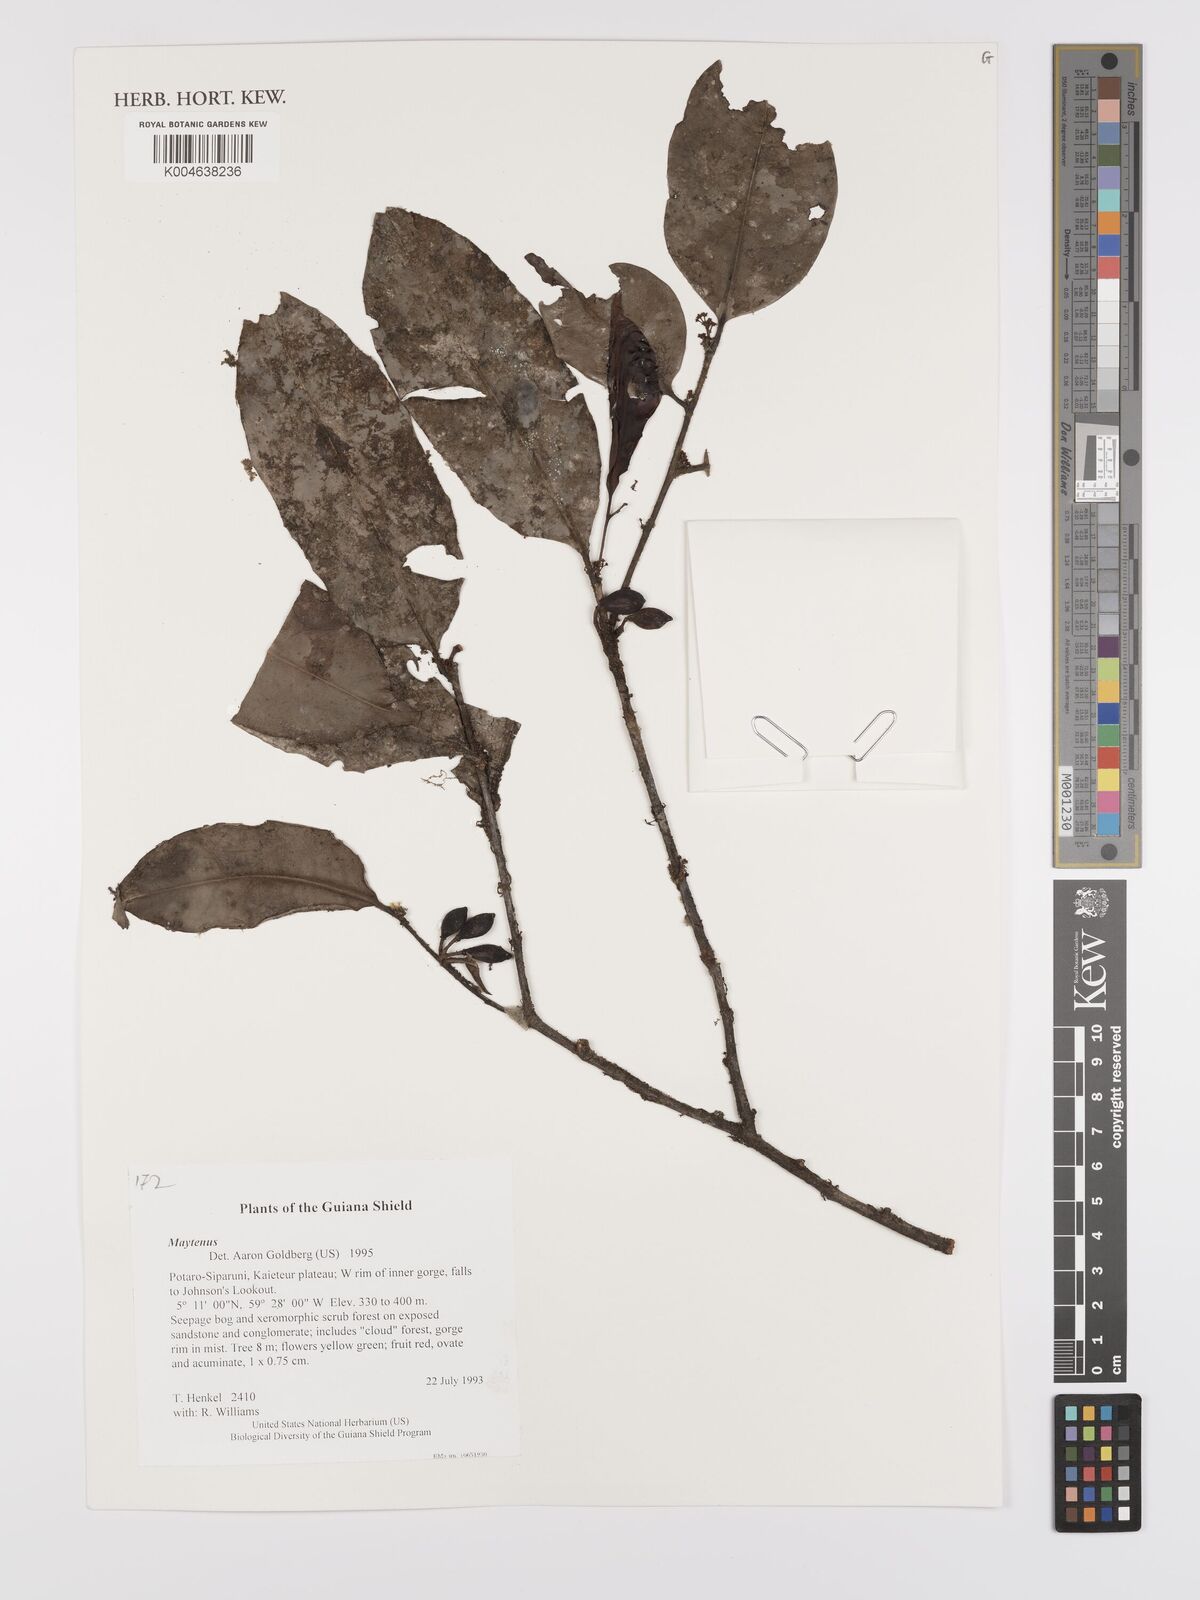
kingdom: Plantae
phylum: Tracheophyta
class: Magnoliopsida
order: Celastrales
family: Celastraceae
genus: Maytenus
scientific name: Maytenus
